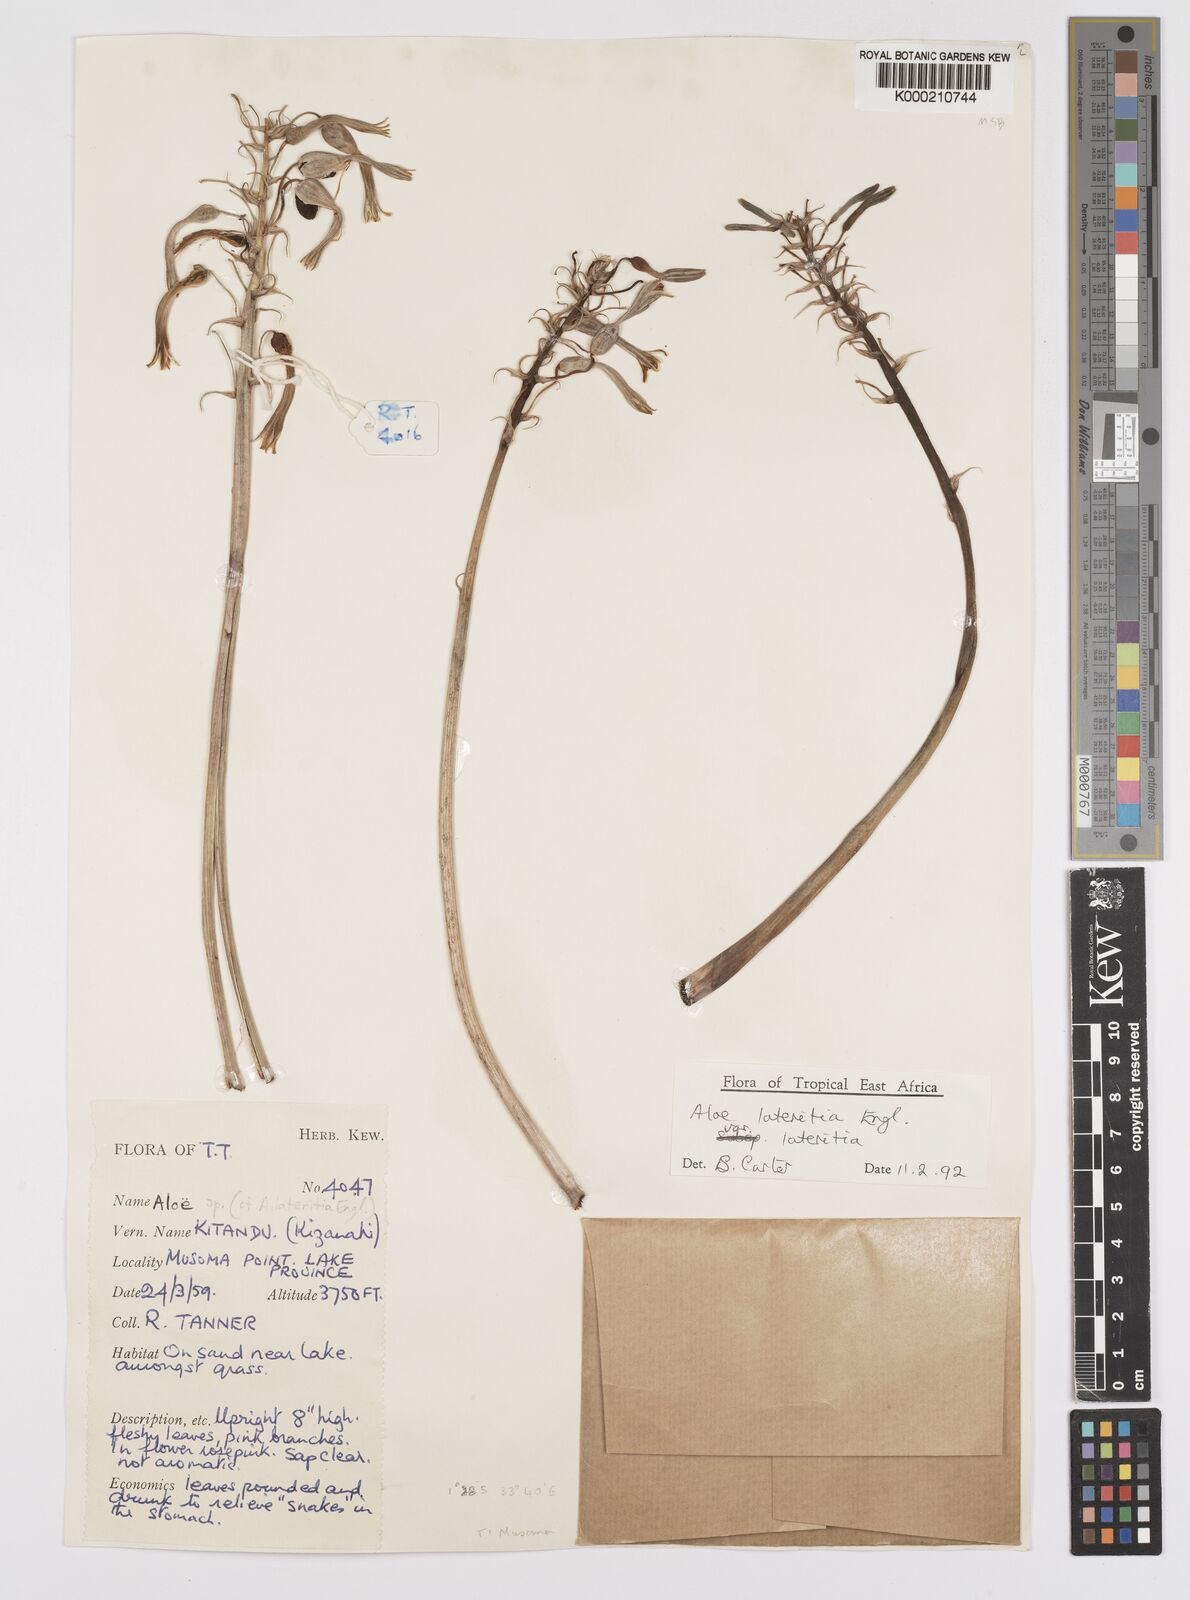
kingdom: Plantae
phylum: Tracheophyta
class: Liliopsida
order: Asparagales
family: Asphodelaceae
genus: Aloe
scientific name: Aloe lateritia
